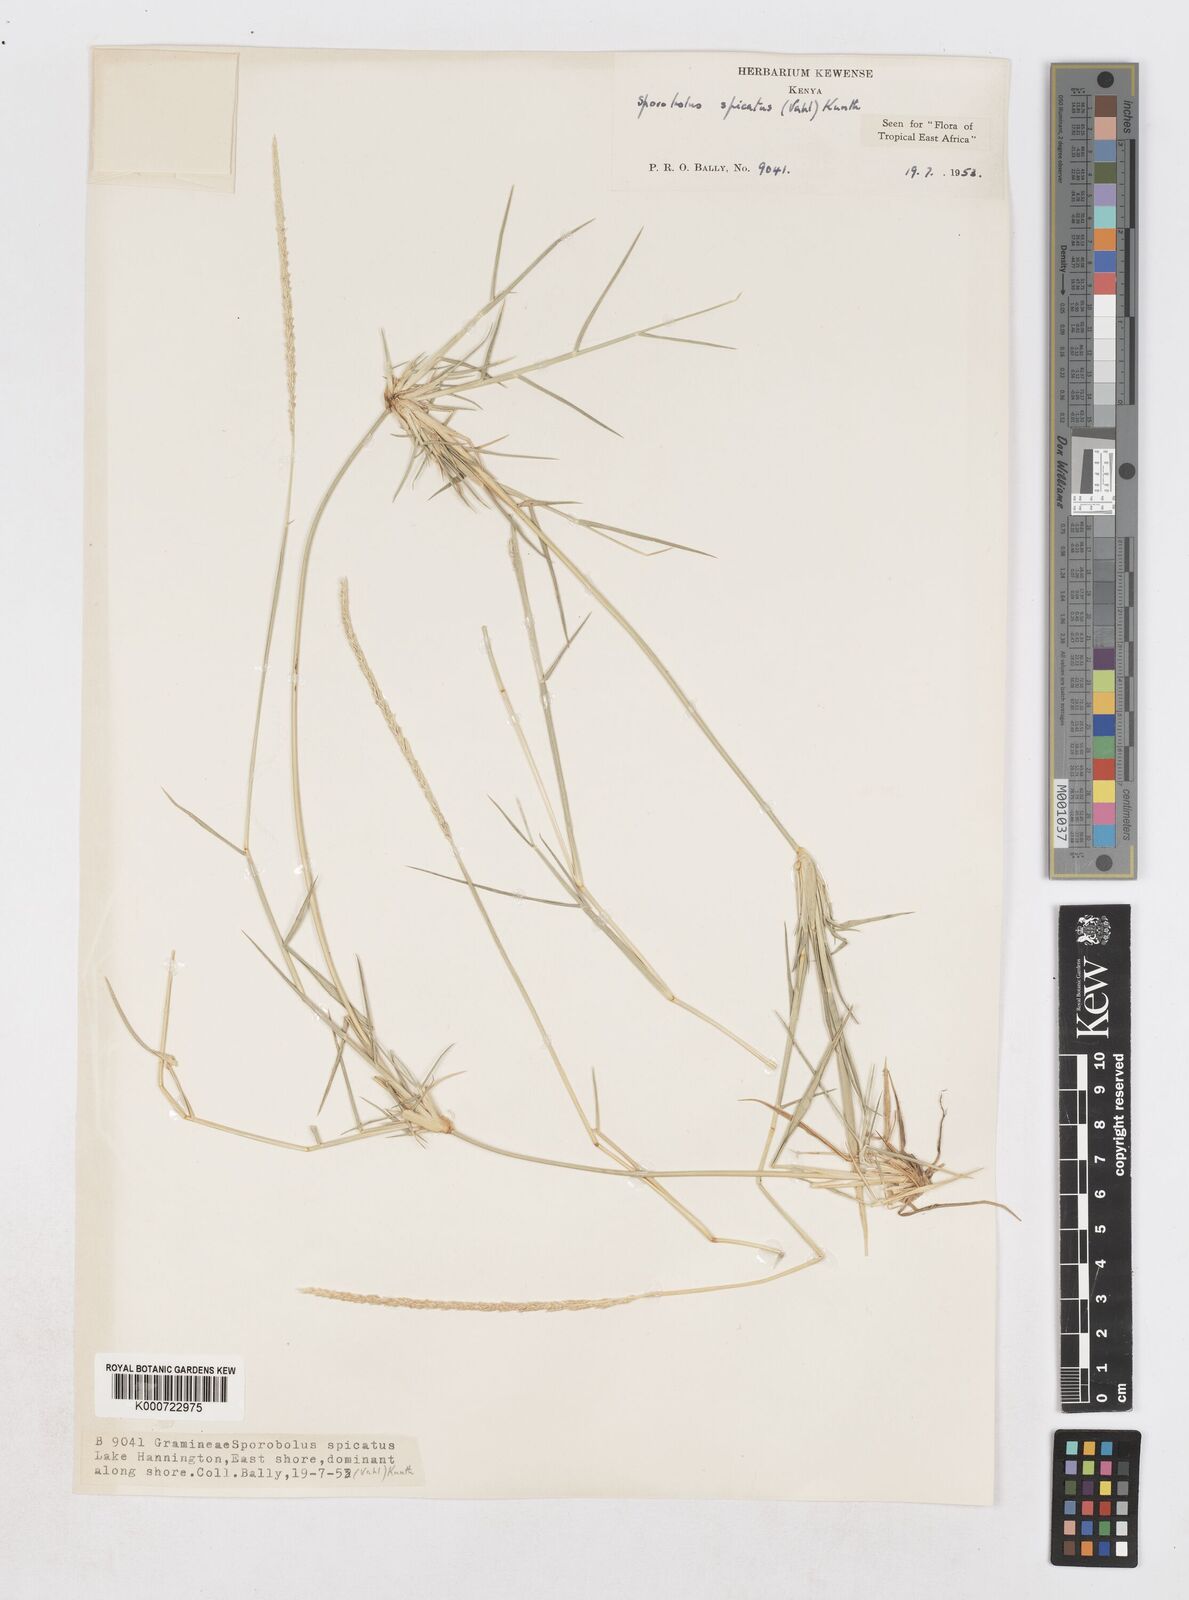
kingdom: Plantae
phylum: Tracheophyta
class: Liliopsida
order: Poales
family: Poaceae
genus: Sporobolus
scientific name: Sporobolus spicatus
